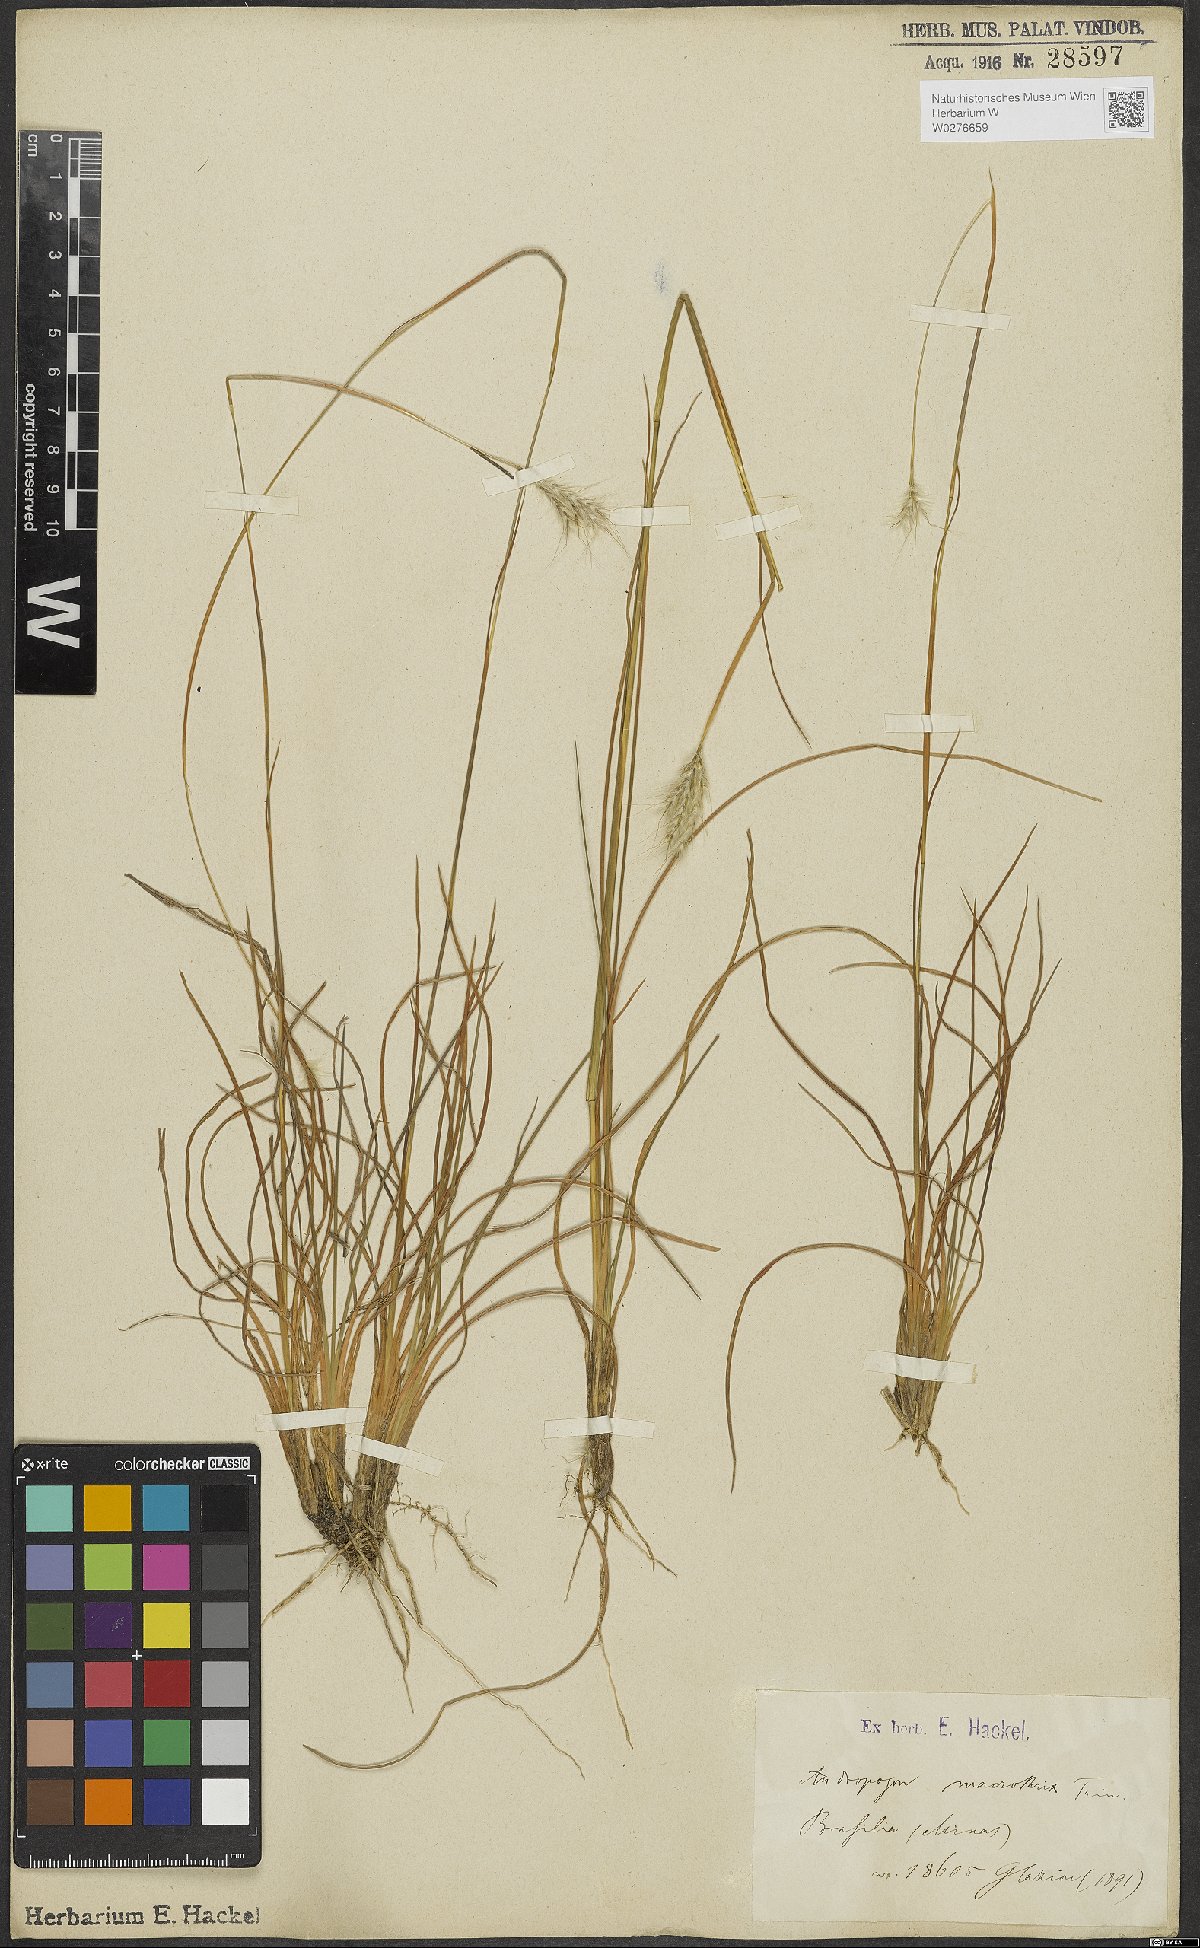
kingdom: Plantae
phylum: Tracheophyta
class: Liliopsida
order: Poales
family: Poaceae
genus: Andropogon
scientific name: Andropogon macrothrix
